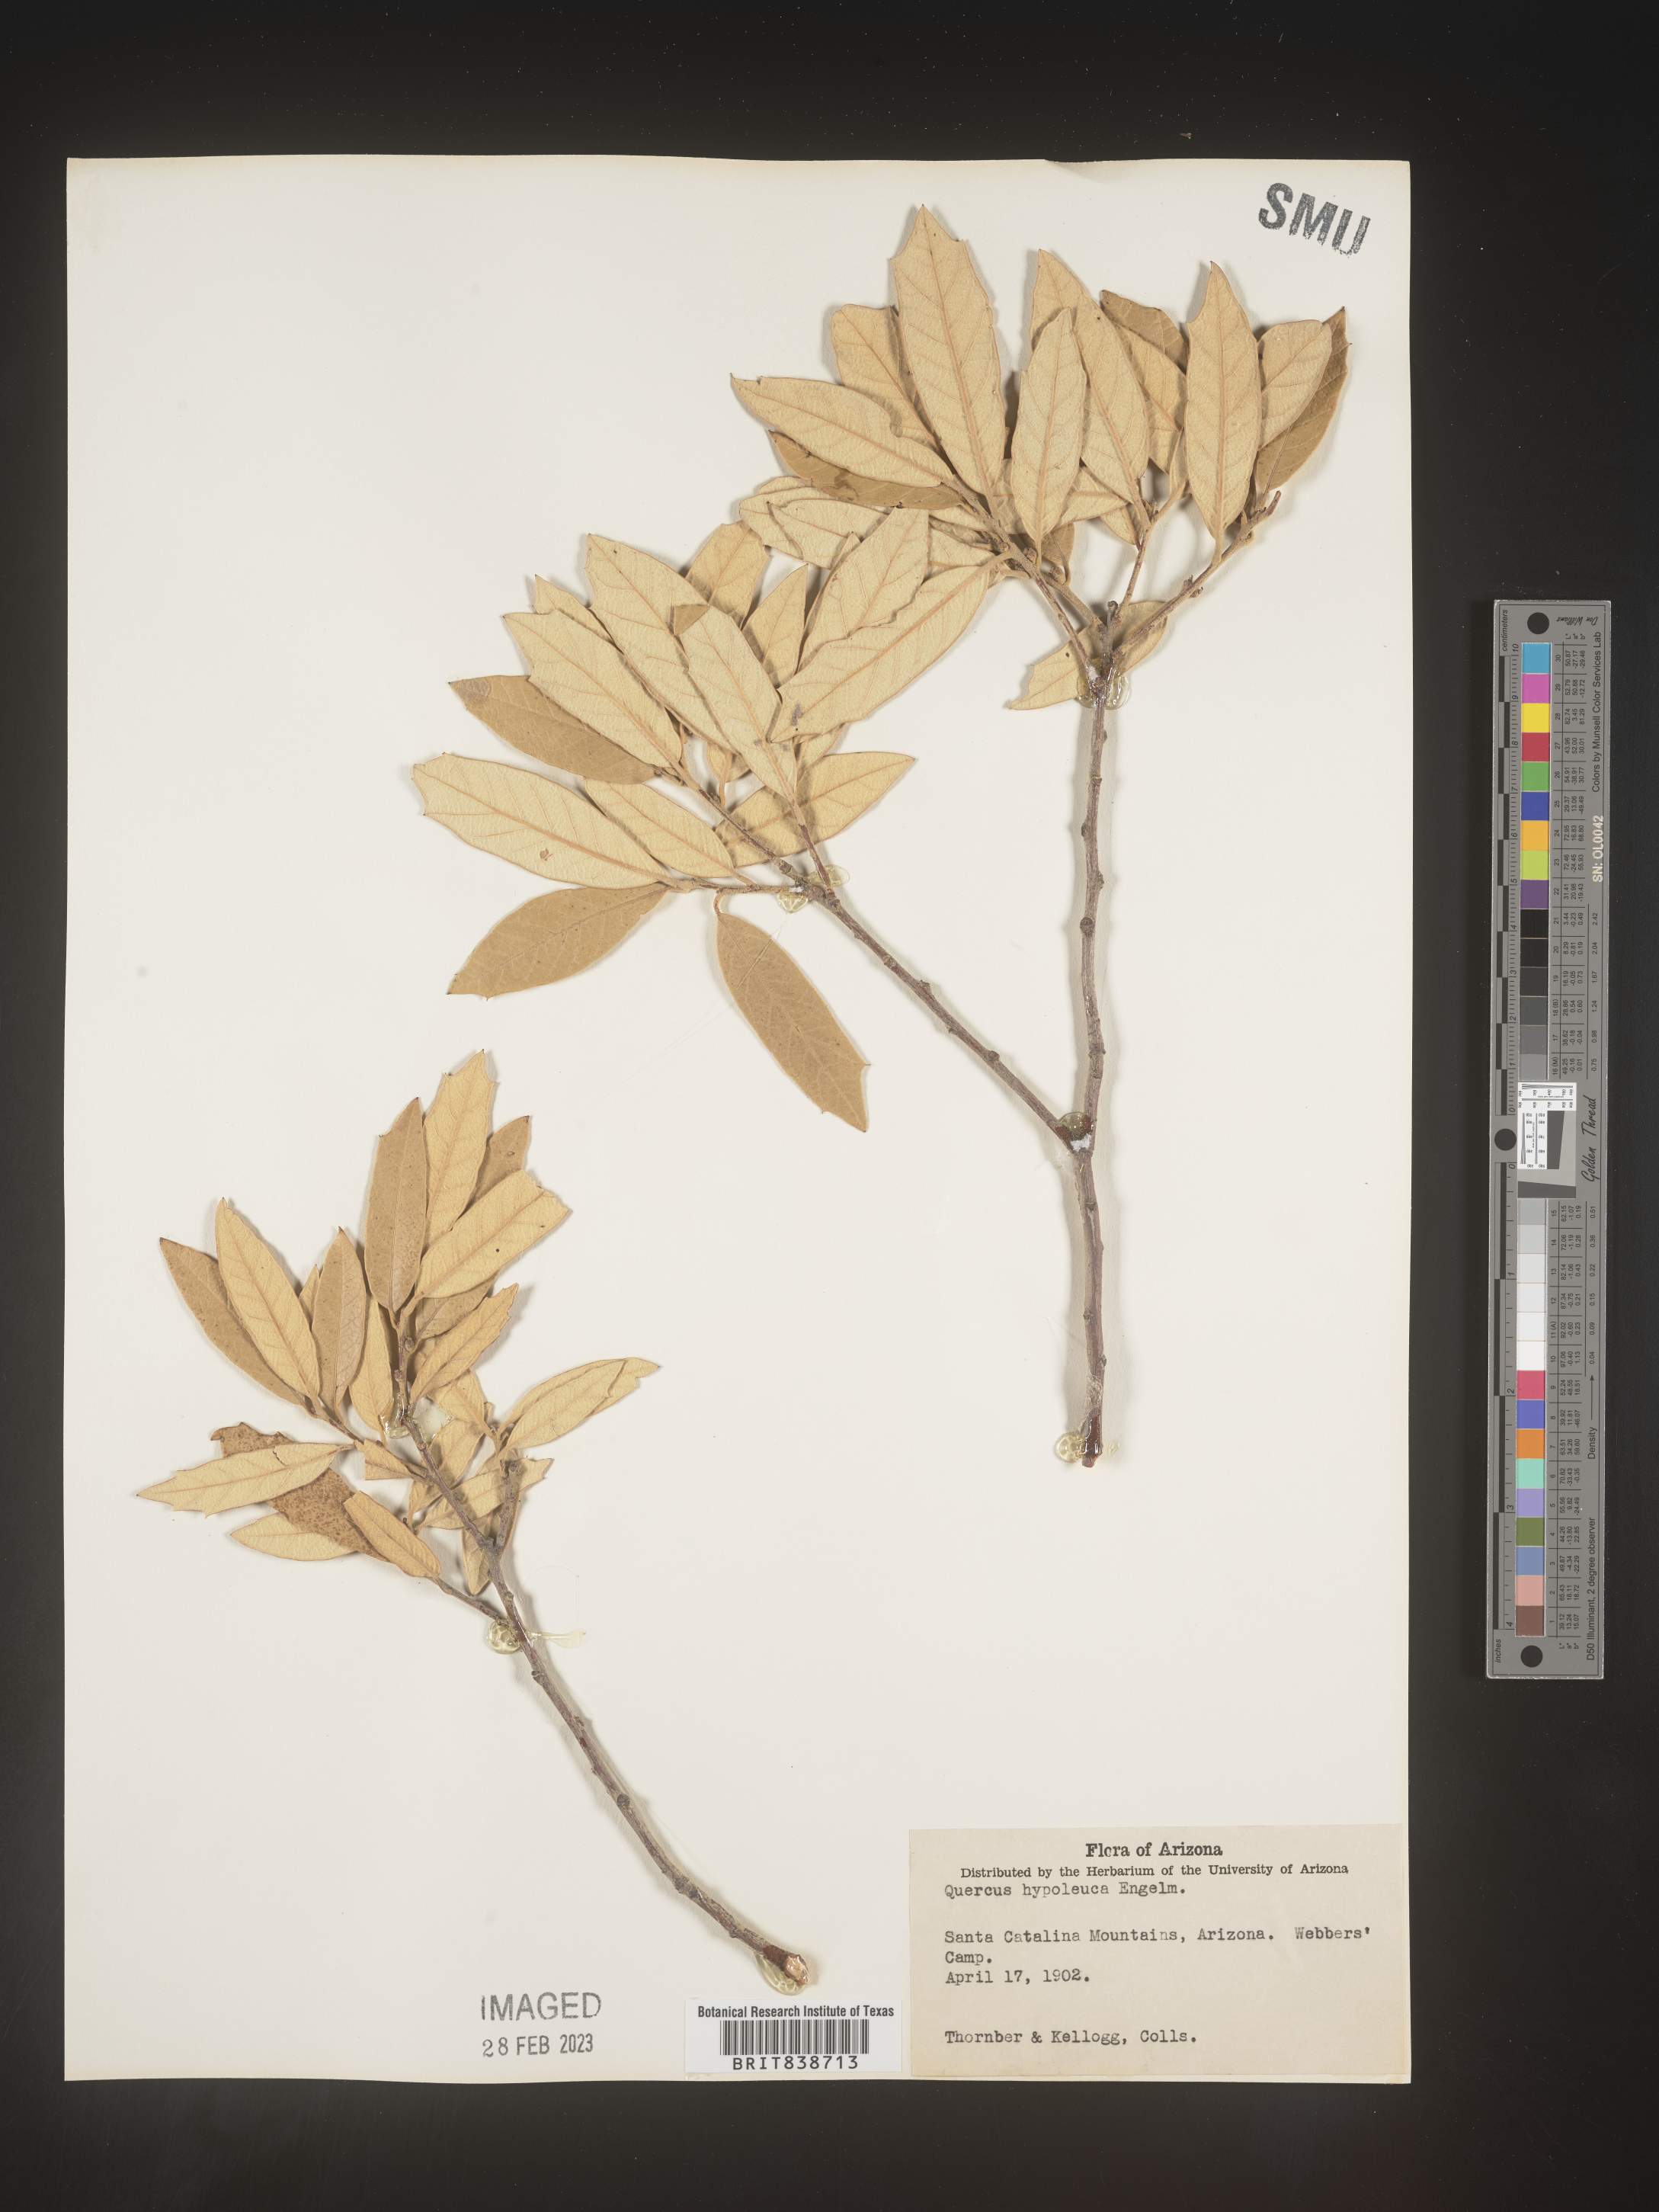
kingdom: Plantae
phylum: Tracheophyta
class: Magnoliopsida
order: Fagales
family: Fagaceae
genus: Quercus
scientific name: Quercus
